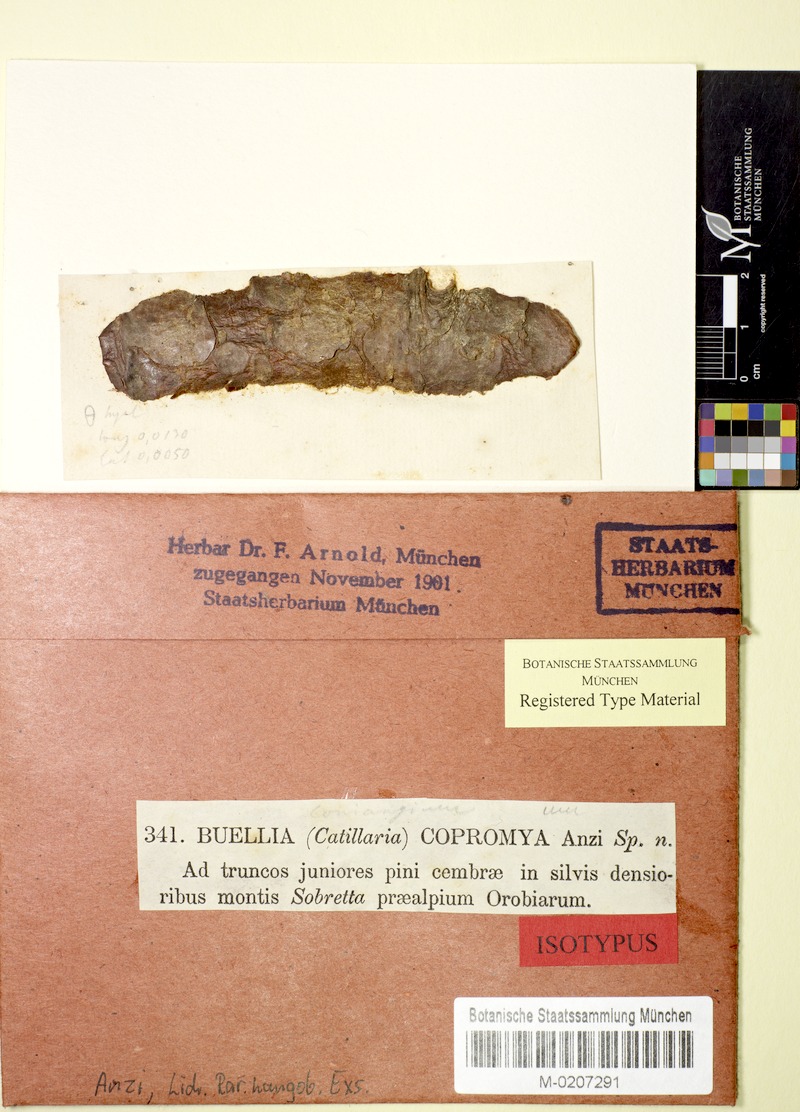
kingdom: Fungi
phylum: Ascomycota
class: Arthoniomycetes
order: Arthoniales
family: Arthoniaceae
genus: Arthonia
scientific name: Arthonia copromya
